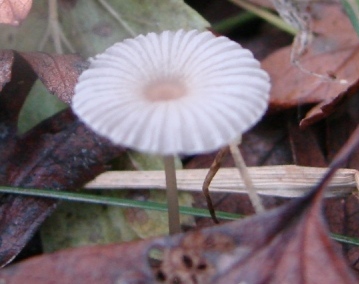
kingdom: Fungi
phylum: Basidiomycota
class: Agaricomycetes
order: Agaricales
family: Psathyrellaceae
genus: Parasola
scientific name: Parasola kuehneri
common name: skygge-hjulhat
